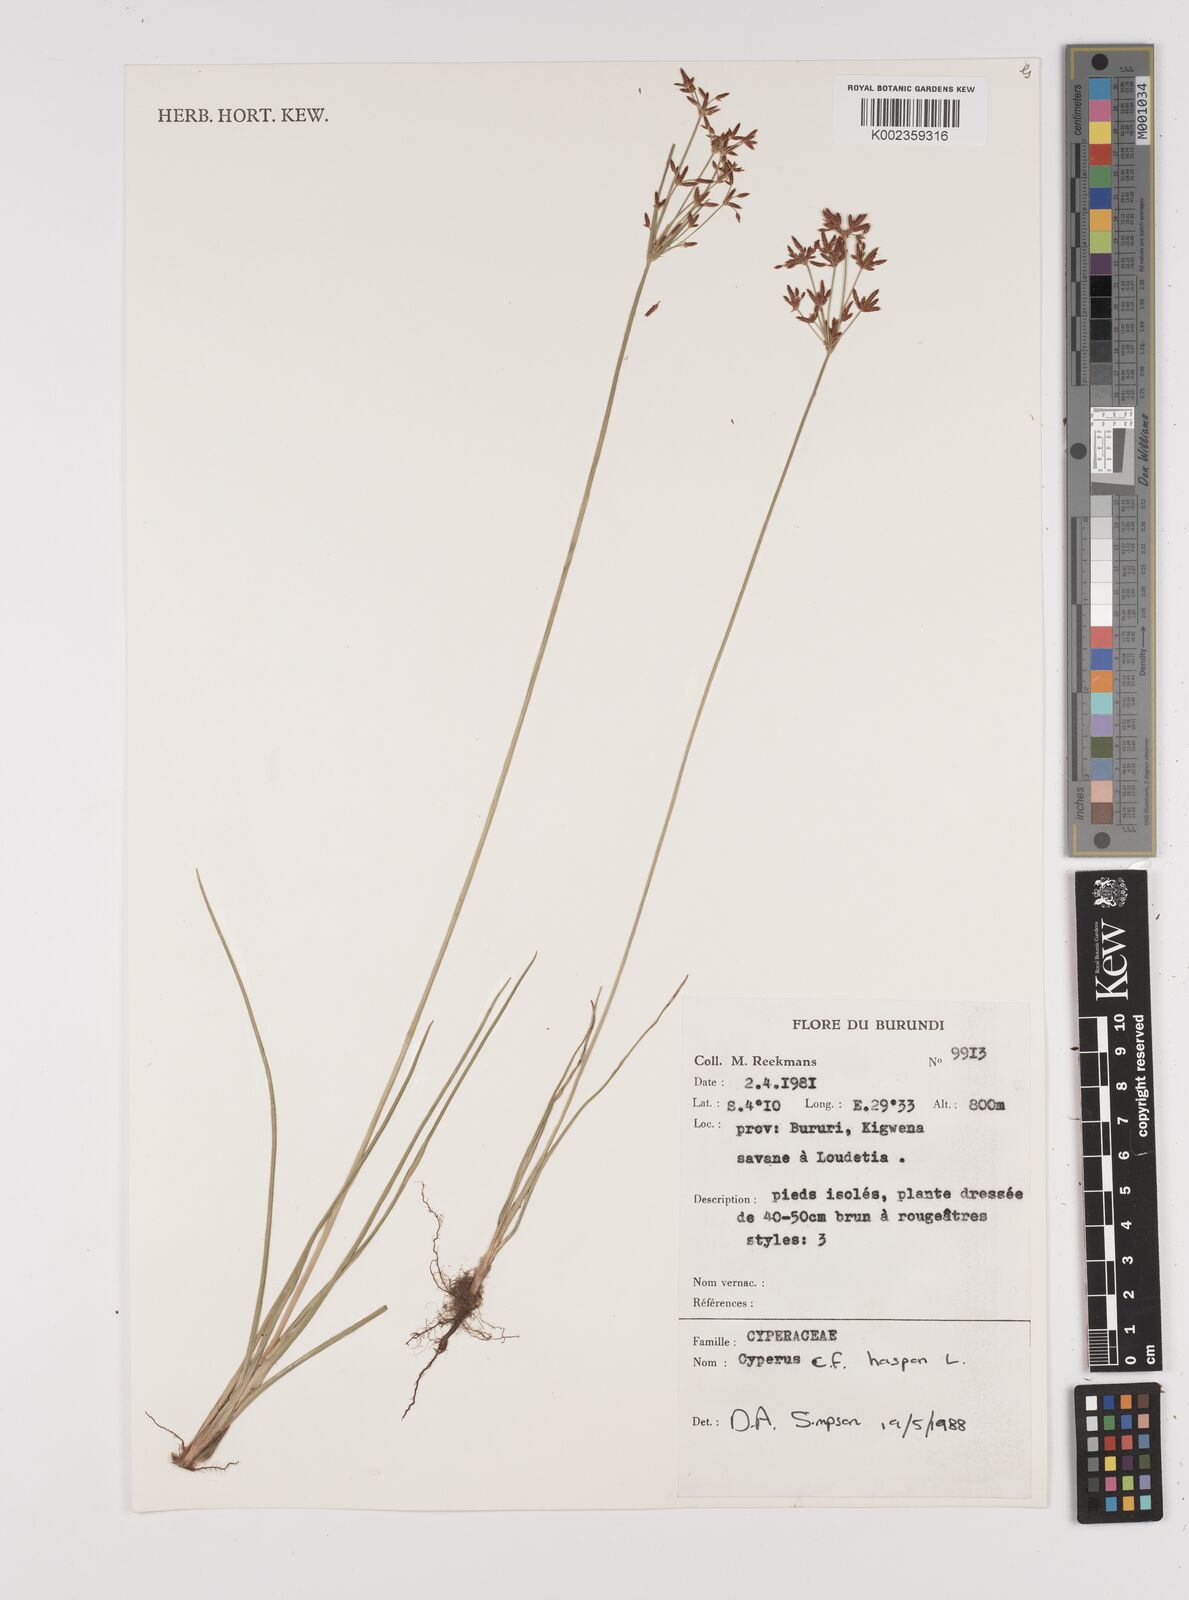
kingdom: Plantae
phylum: Tracheophyta
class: Liliopsida
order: Poales
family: Cyperaceae
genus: Cyperus
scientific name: Cyperus haspan
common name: Haspan flatsedge
